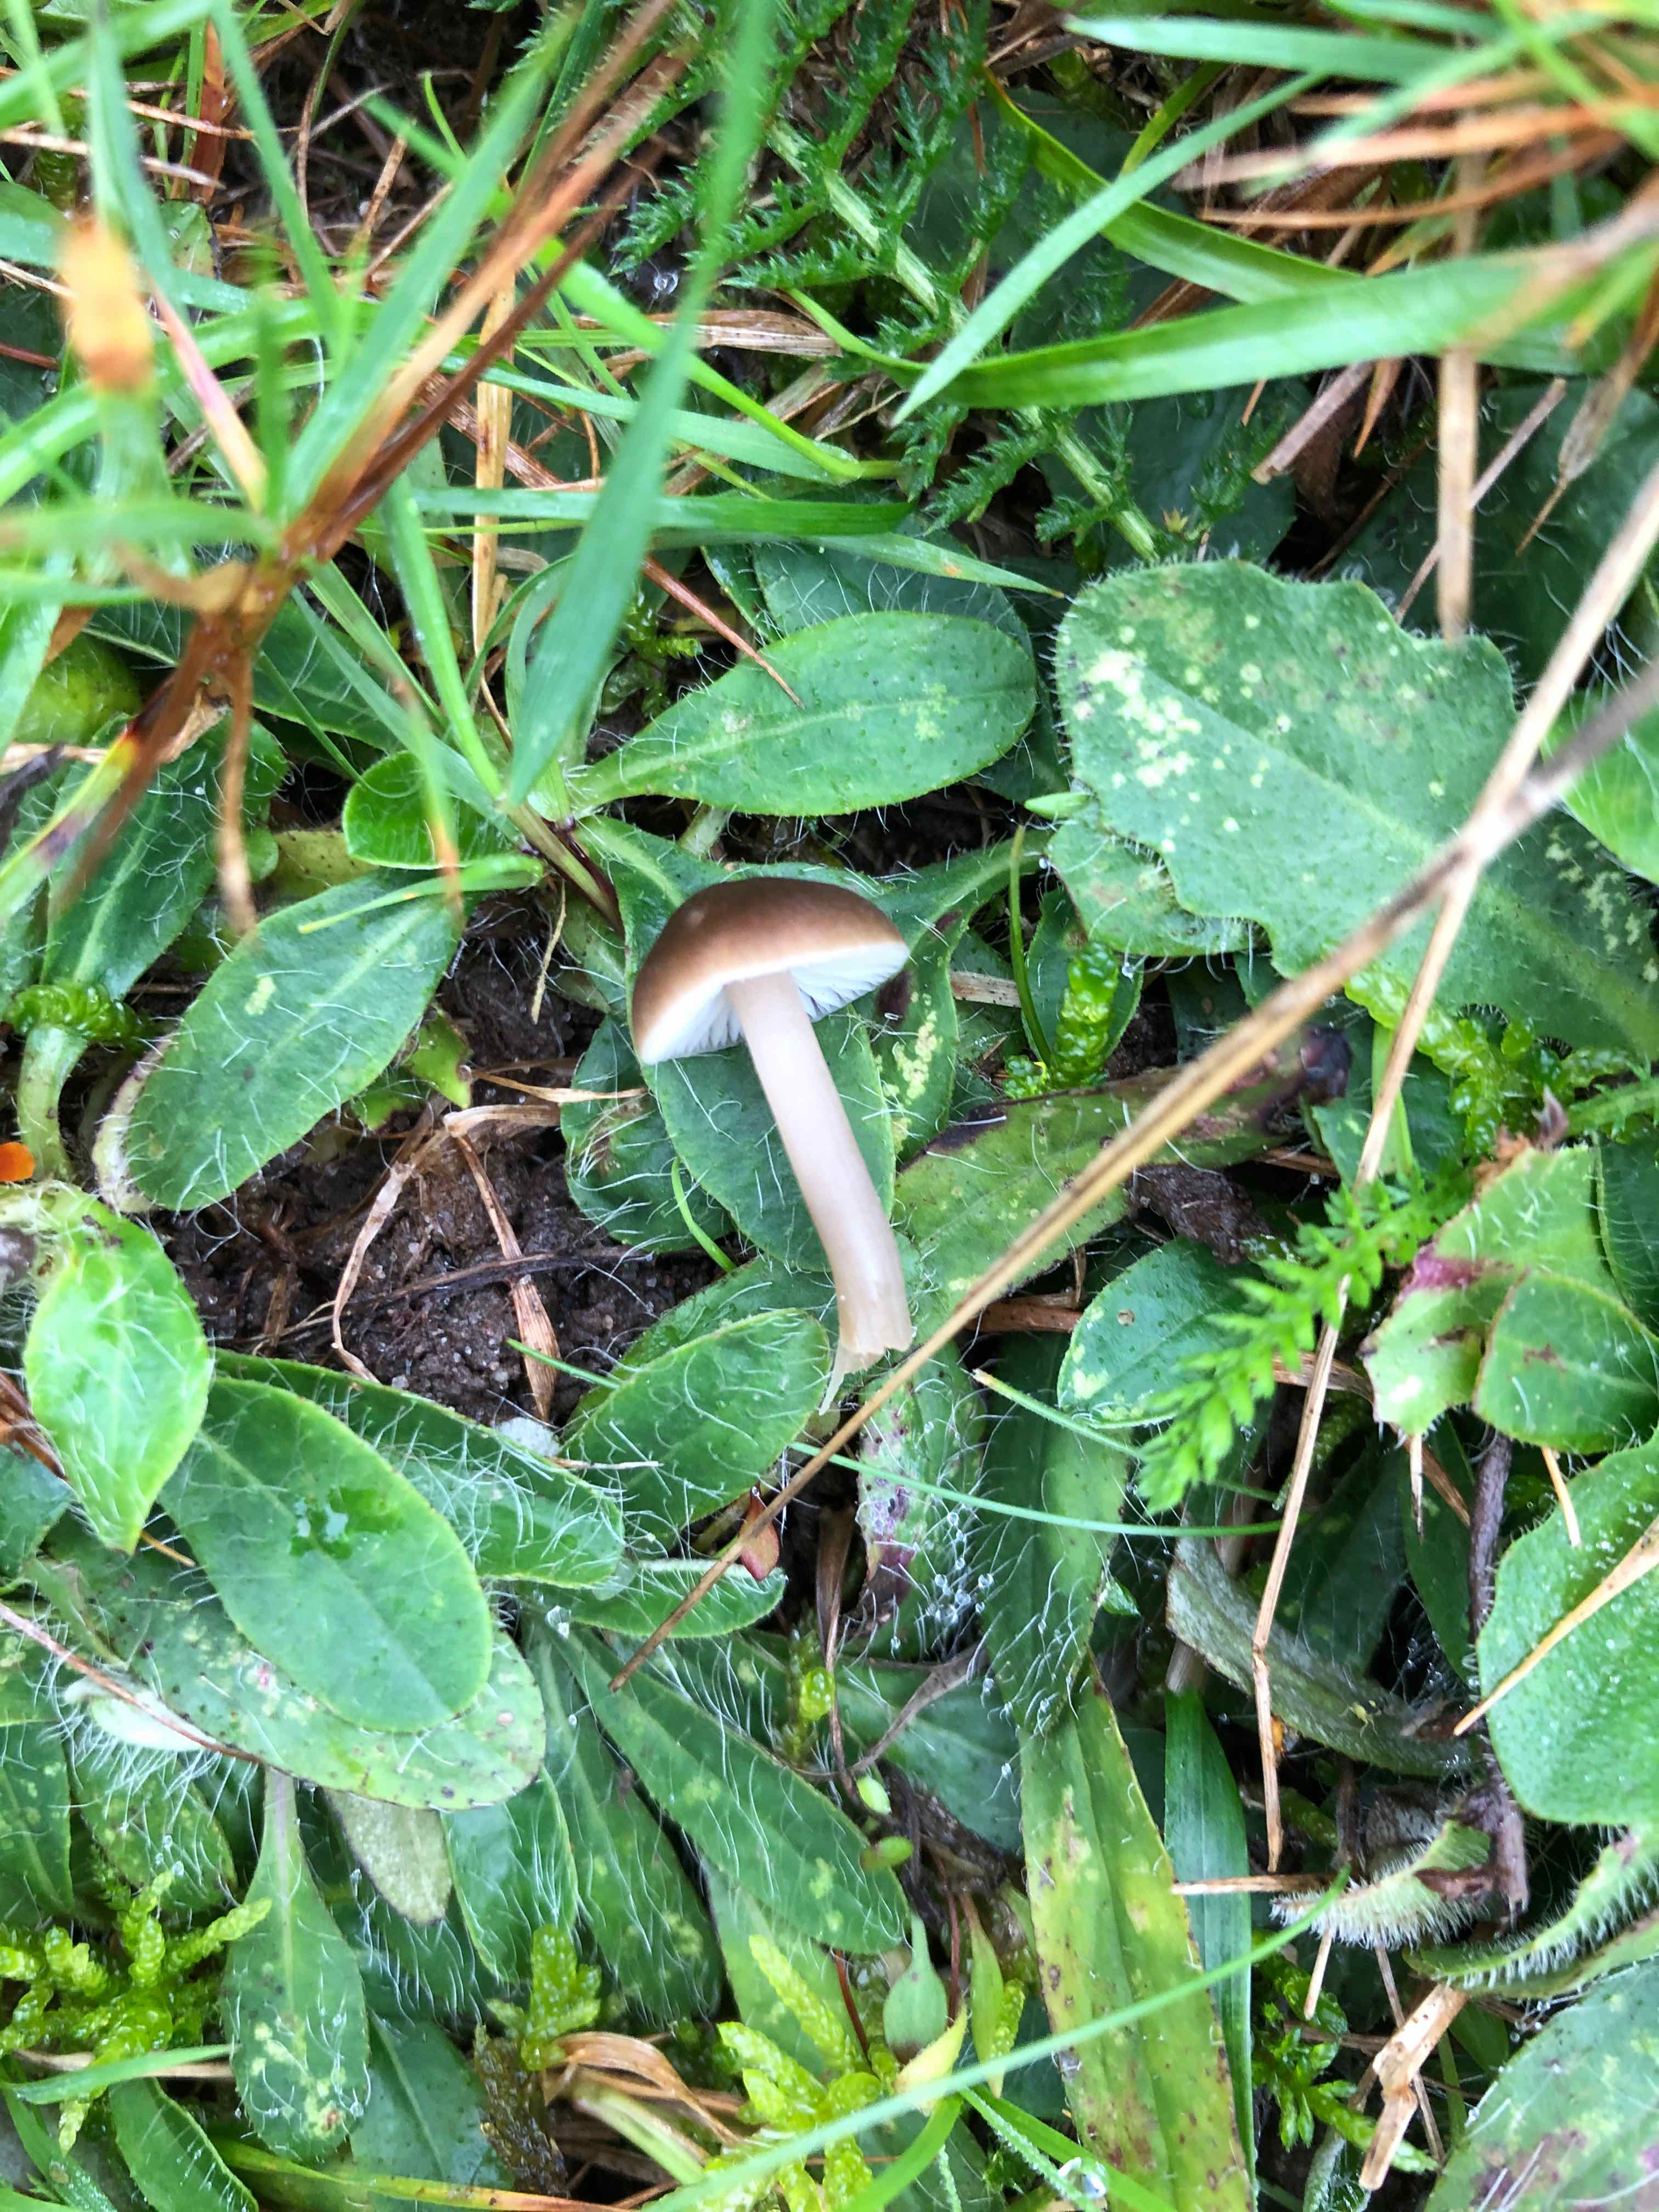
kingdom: Fungi
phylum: Basidiomycota
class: Agaricomycetes
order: Agaricales
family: Hygrophoraceae
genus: Neohygrocybe
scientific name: Neohygrocybe nitrata
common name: stinkende vokshat
